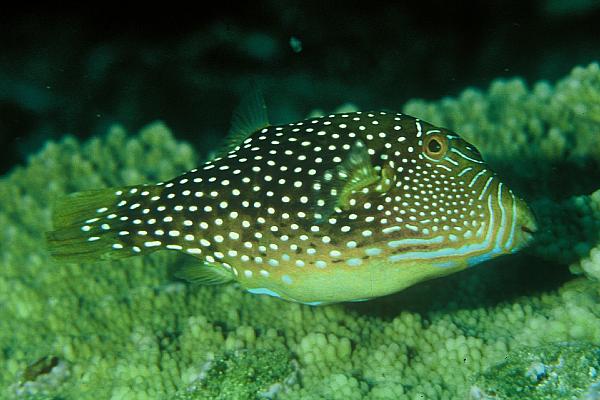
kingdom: Animalia
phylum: Chordata
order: Tetraodontiformes
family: Tetraodontidae
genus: Canthigaster
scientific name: Canthigaster amboinensis
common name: Ambon pufferfish
